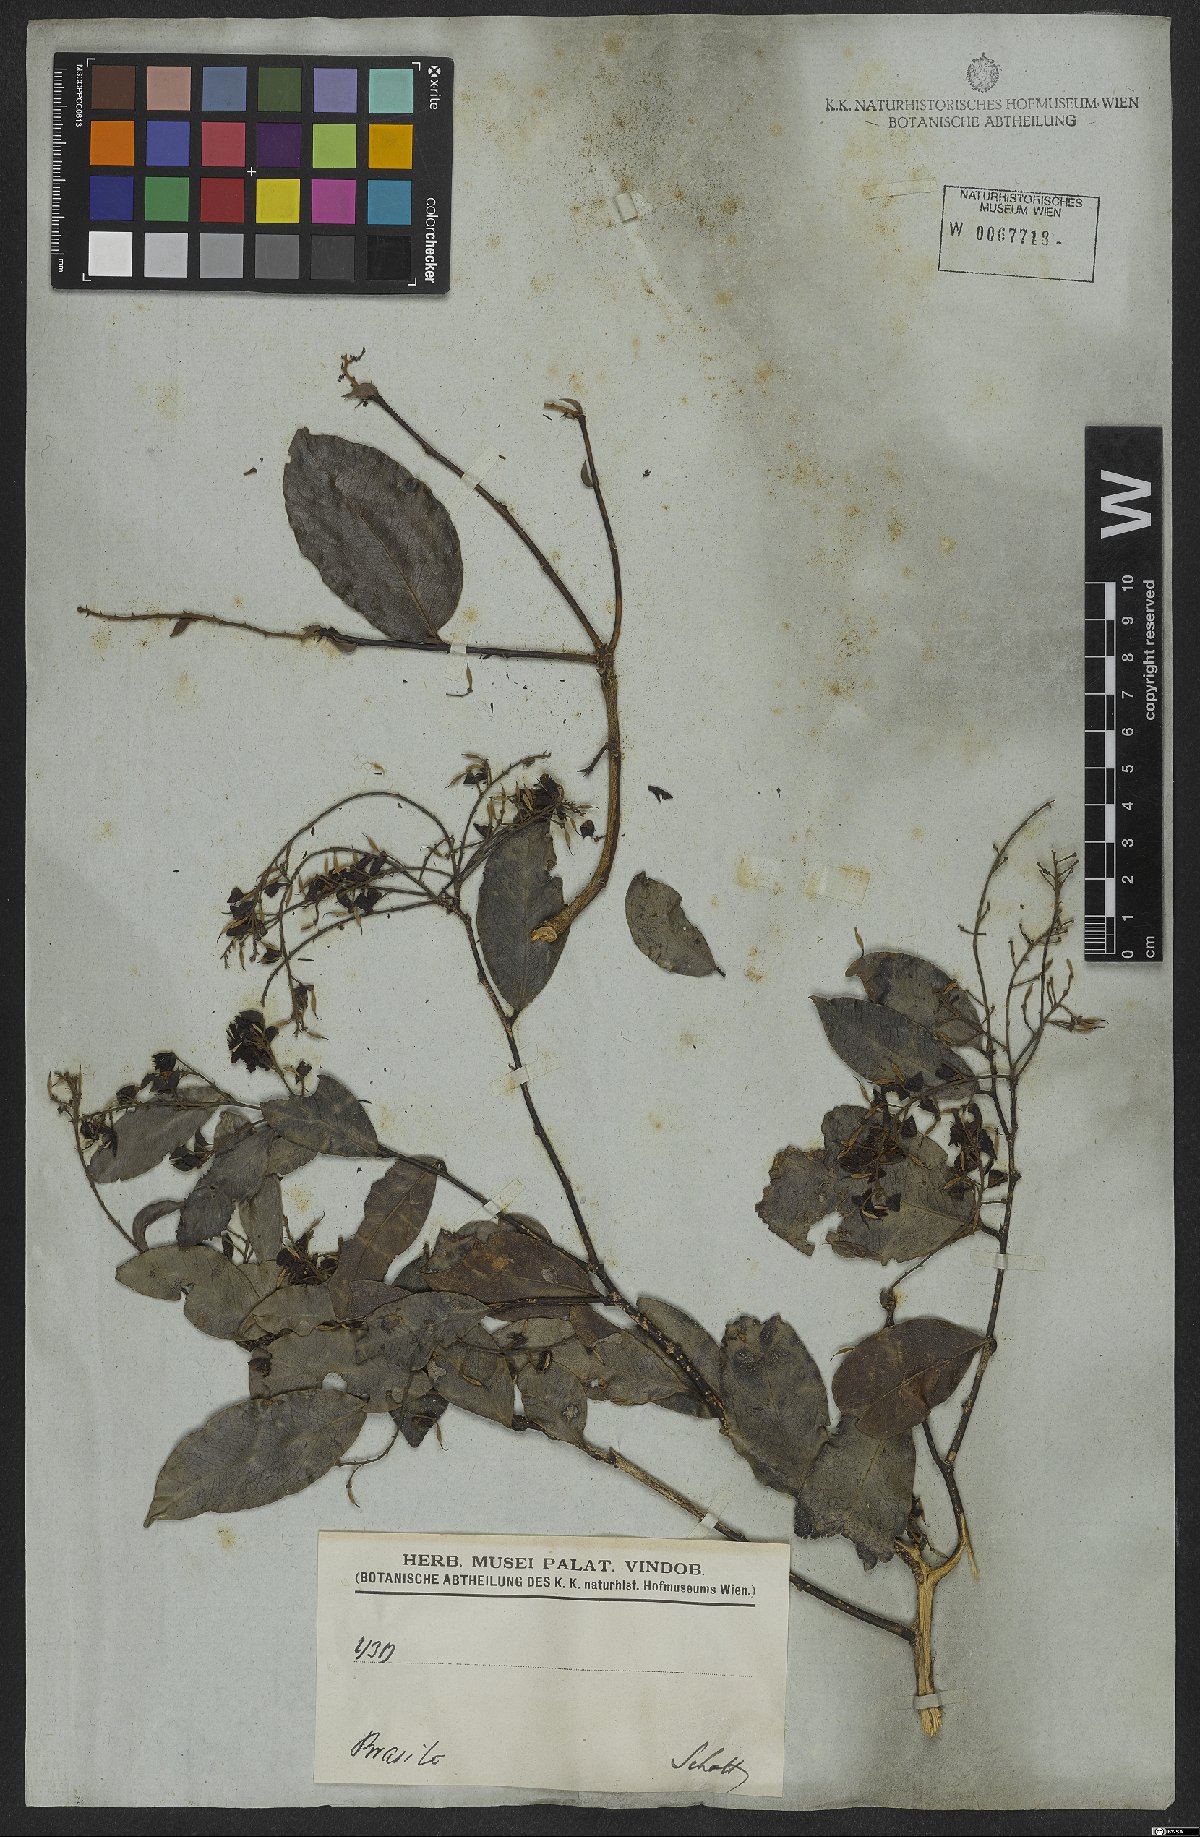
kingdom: Plantae
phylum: Tracheophyta
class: Magnoliopsida
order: Fabales
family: Fabaceae
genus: Exostyles
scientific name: Exostyles
